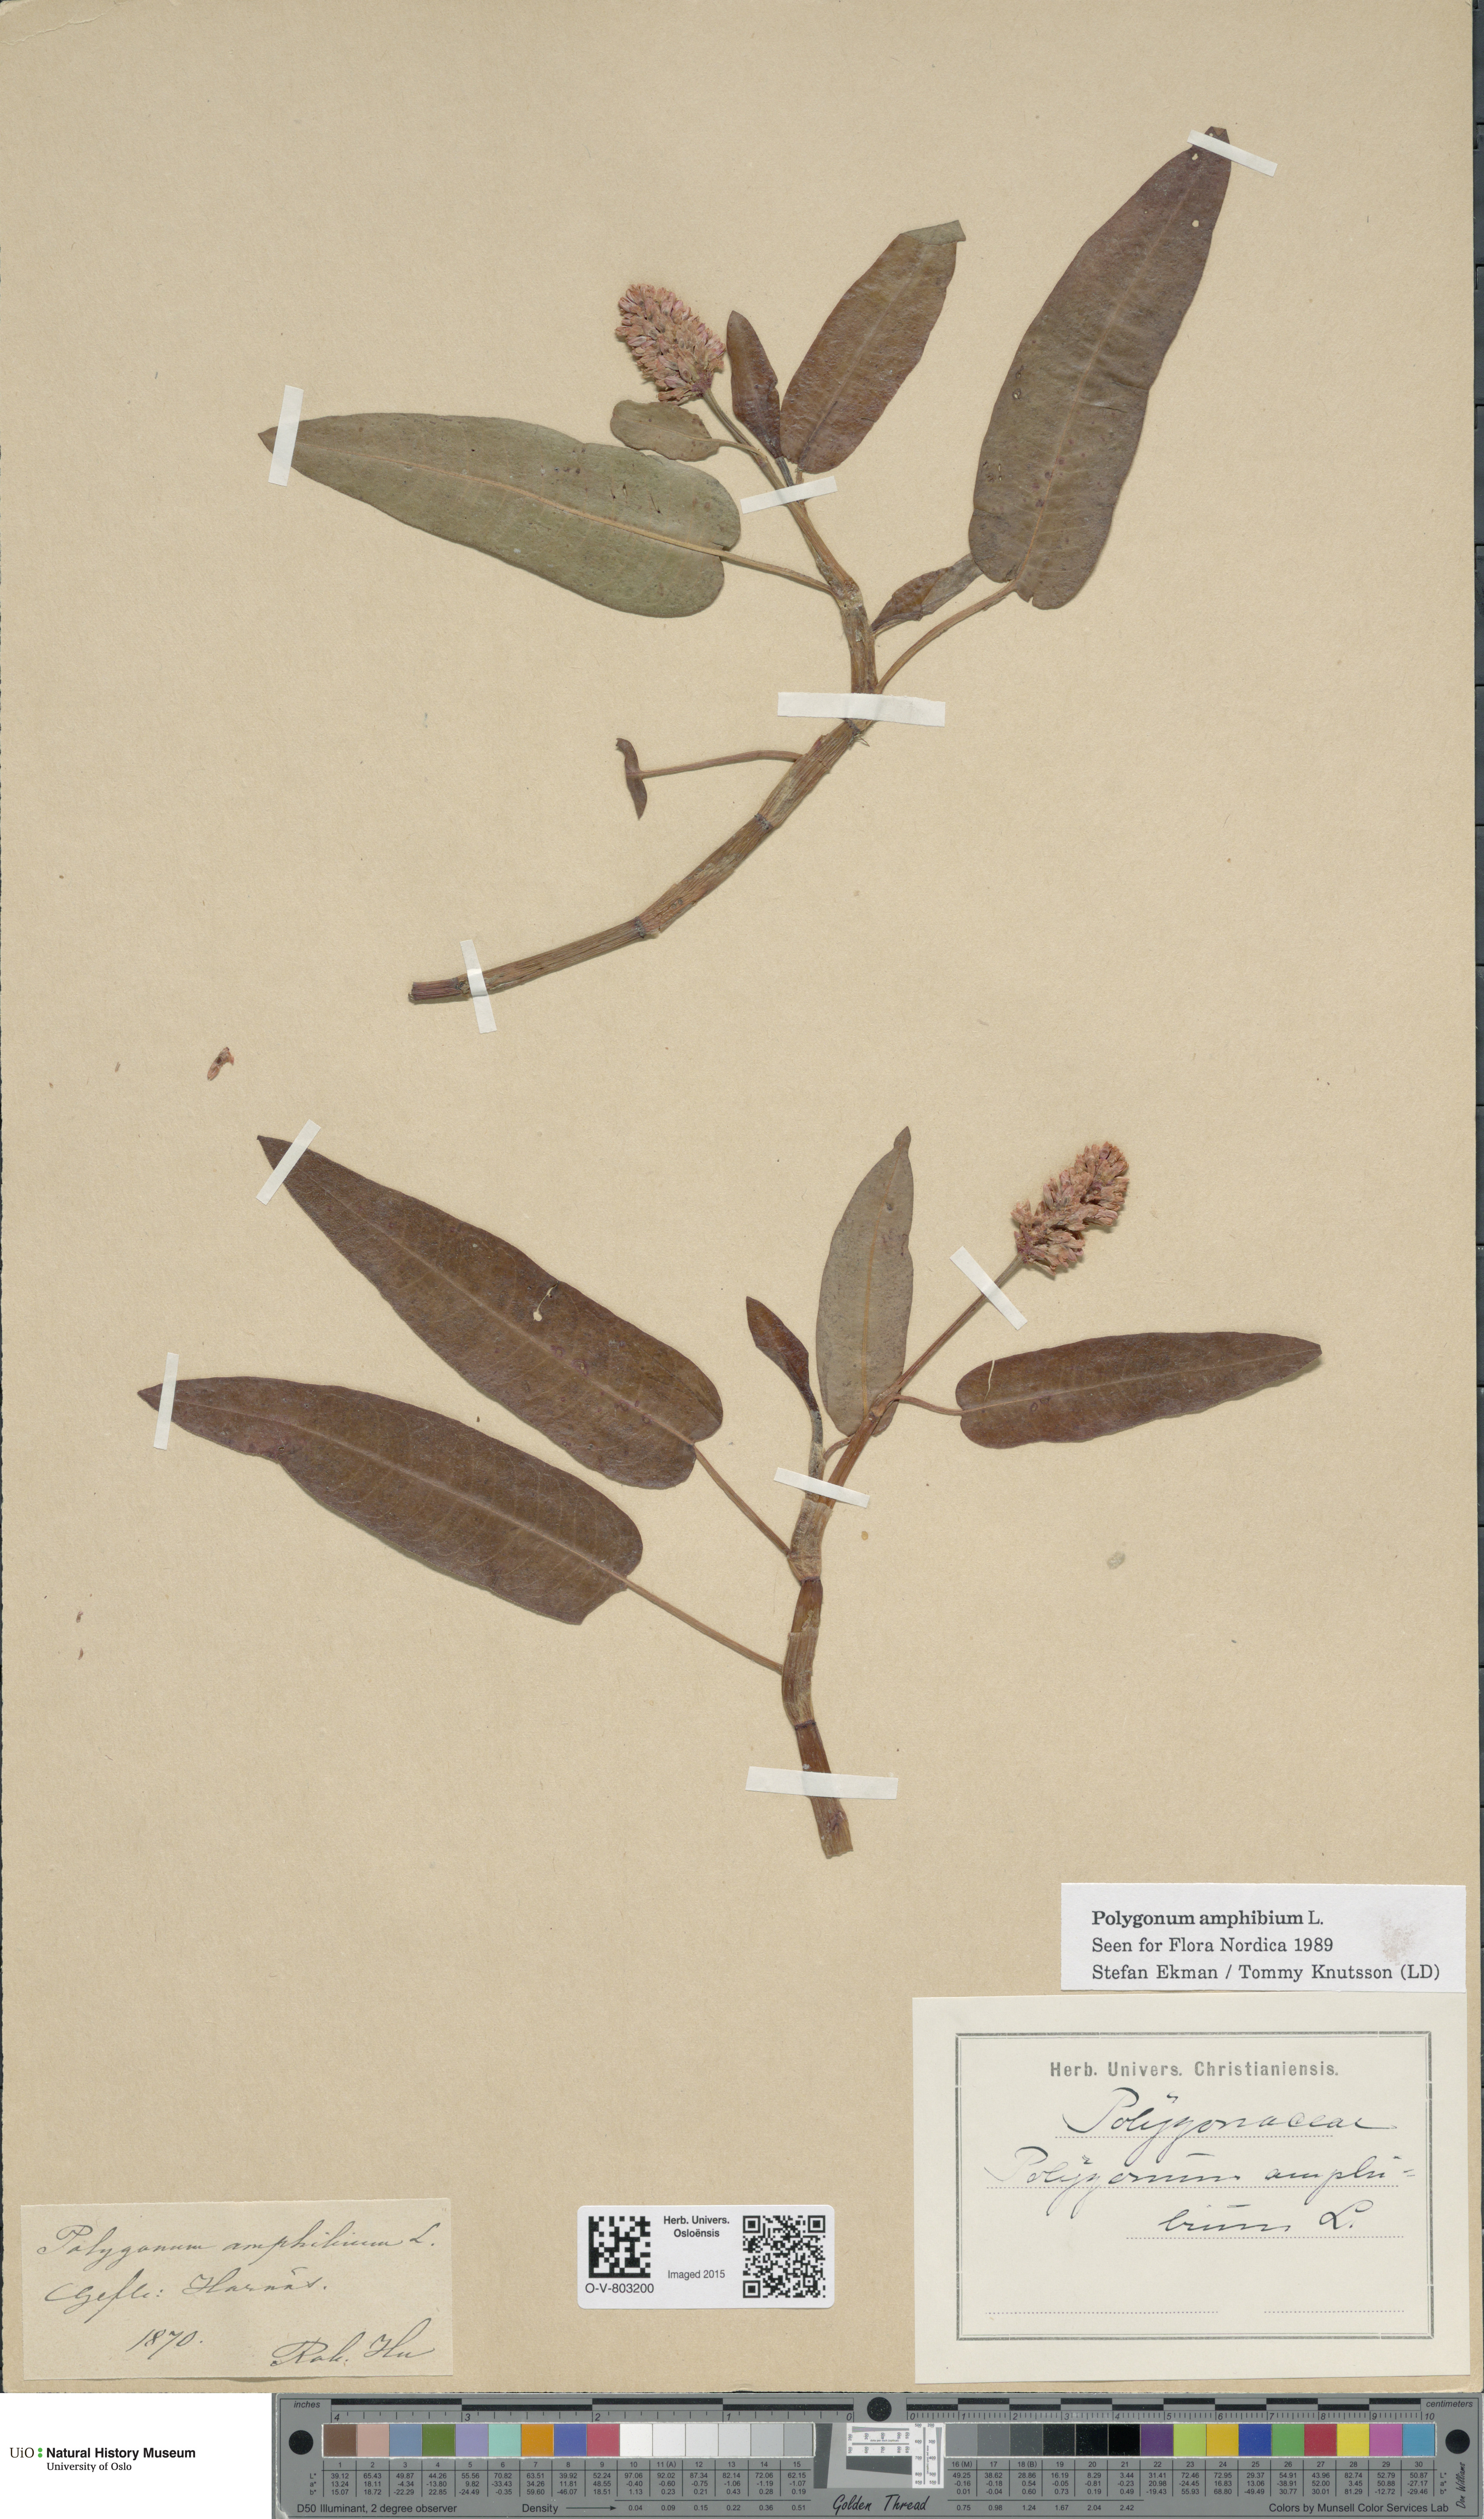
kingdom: Plantae
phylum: Tracheophyta
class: Magnoliopsida
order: Caryophyllales
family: Polygonaceae
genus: Persicaria
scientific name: Persicaria amphibia
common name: Amphibious bistort
